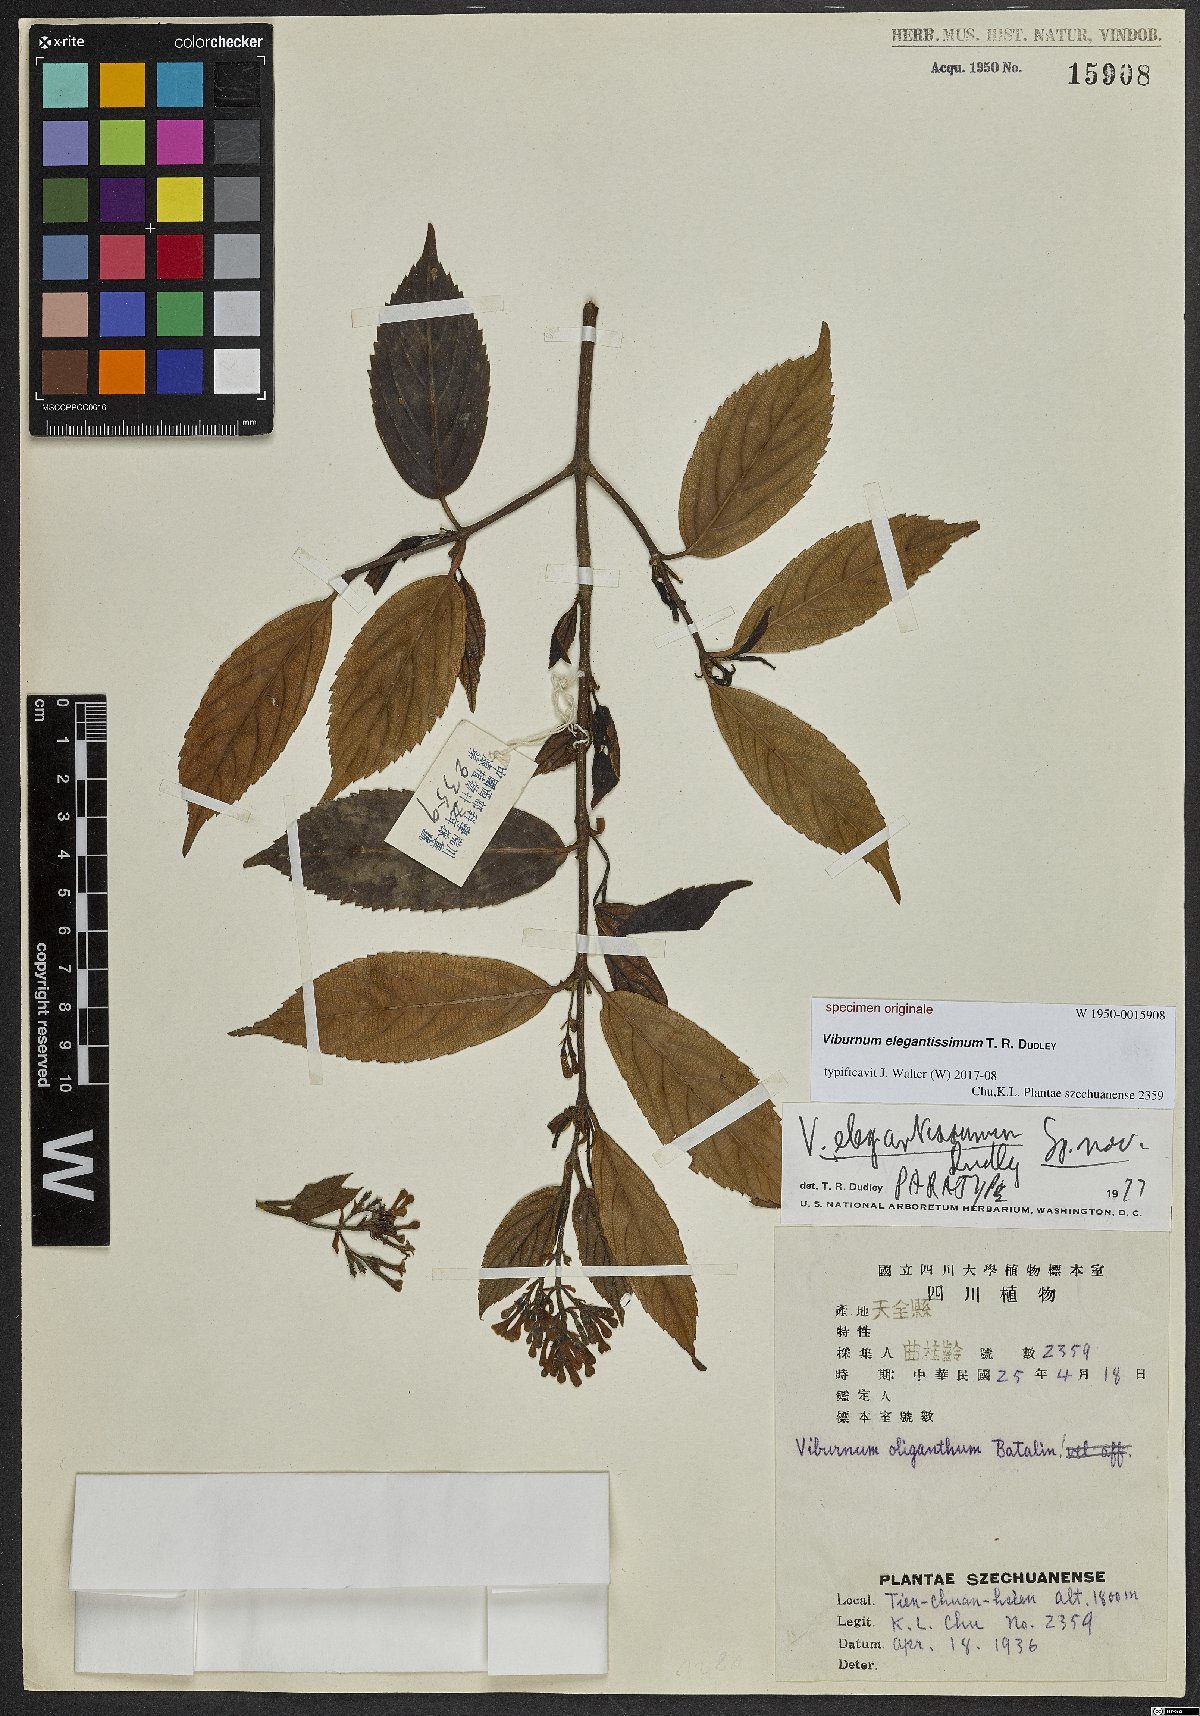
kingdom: Plantae
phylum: Tracheophyta
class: Magnoliopsida
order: Dipsacales
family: Viburnaceae
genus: Viburnum
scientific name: Viburnum
